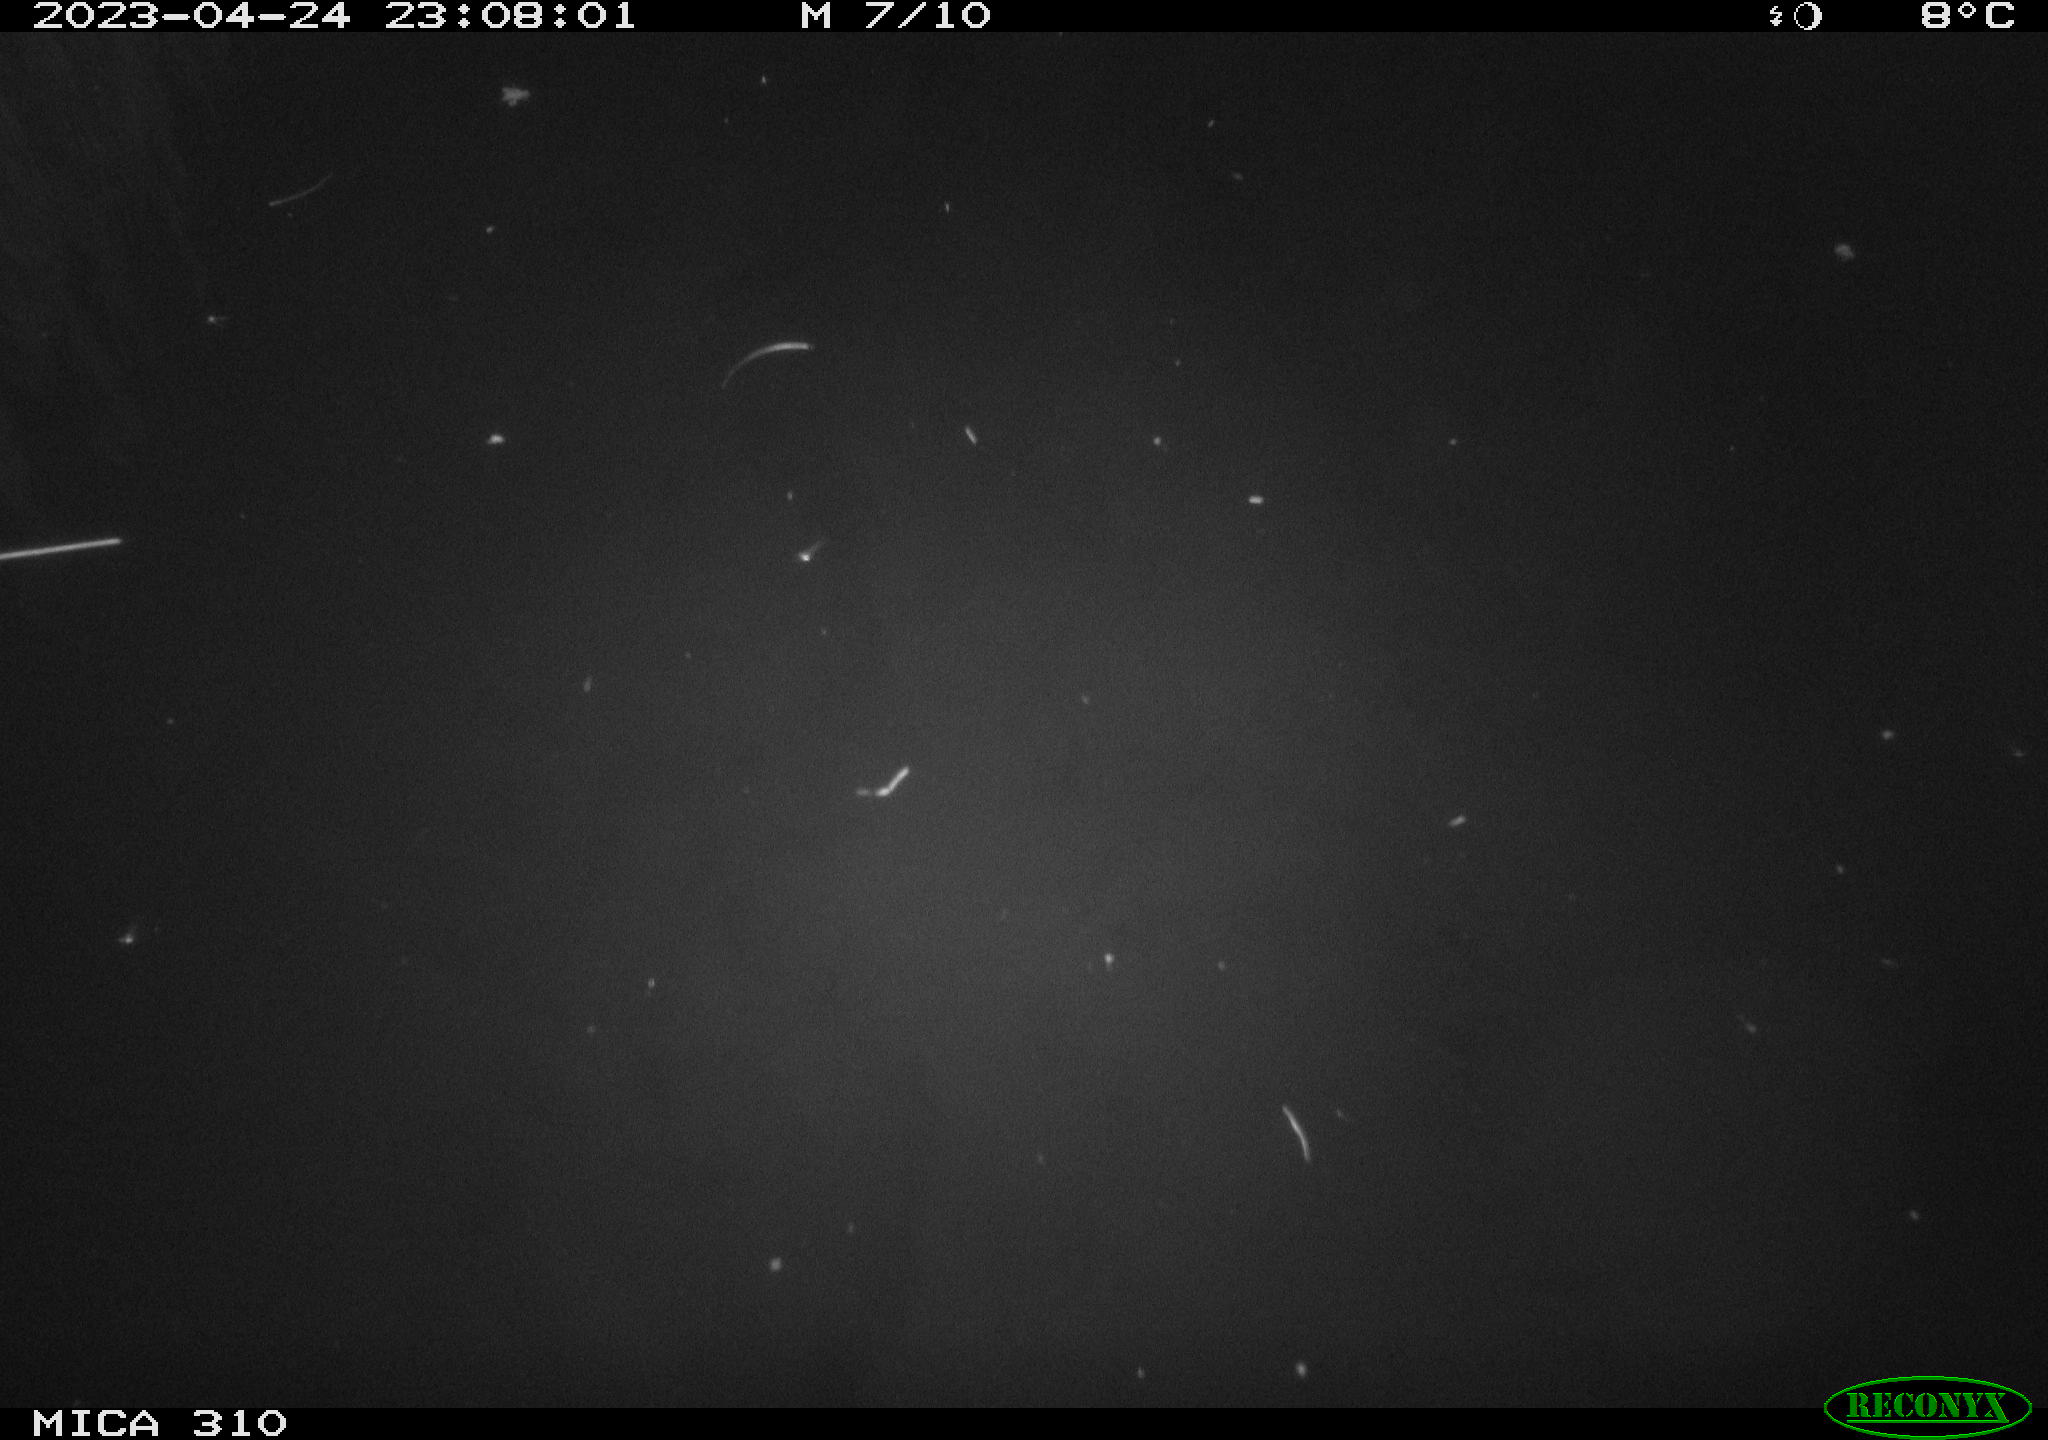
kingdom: Animalia
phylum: Chordata
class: Aves
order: Anseriformes
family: Anatidae
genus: Anas
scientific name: Anas
